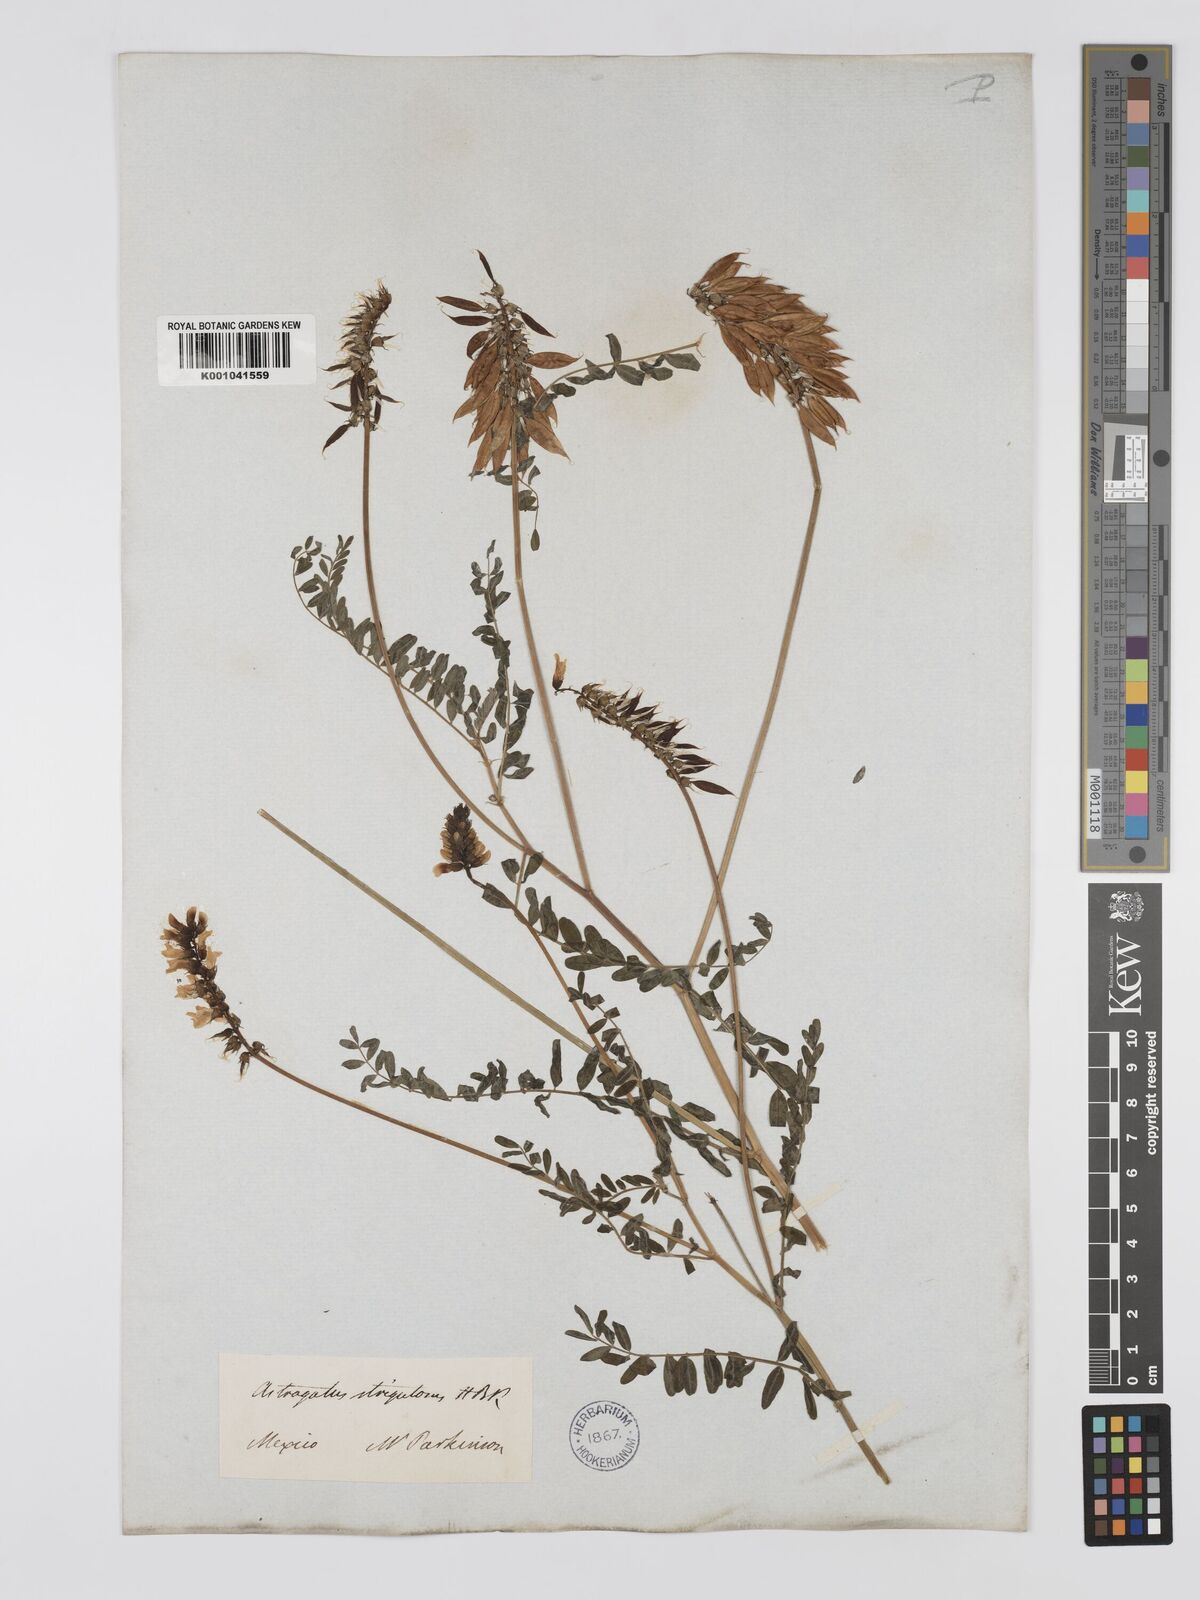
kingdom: Plantae
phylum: Tracheophyta
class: Magnoliopsida
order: Fabales
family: Fabaceae
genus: Astragalus
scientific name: Astragalus strigulosus
